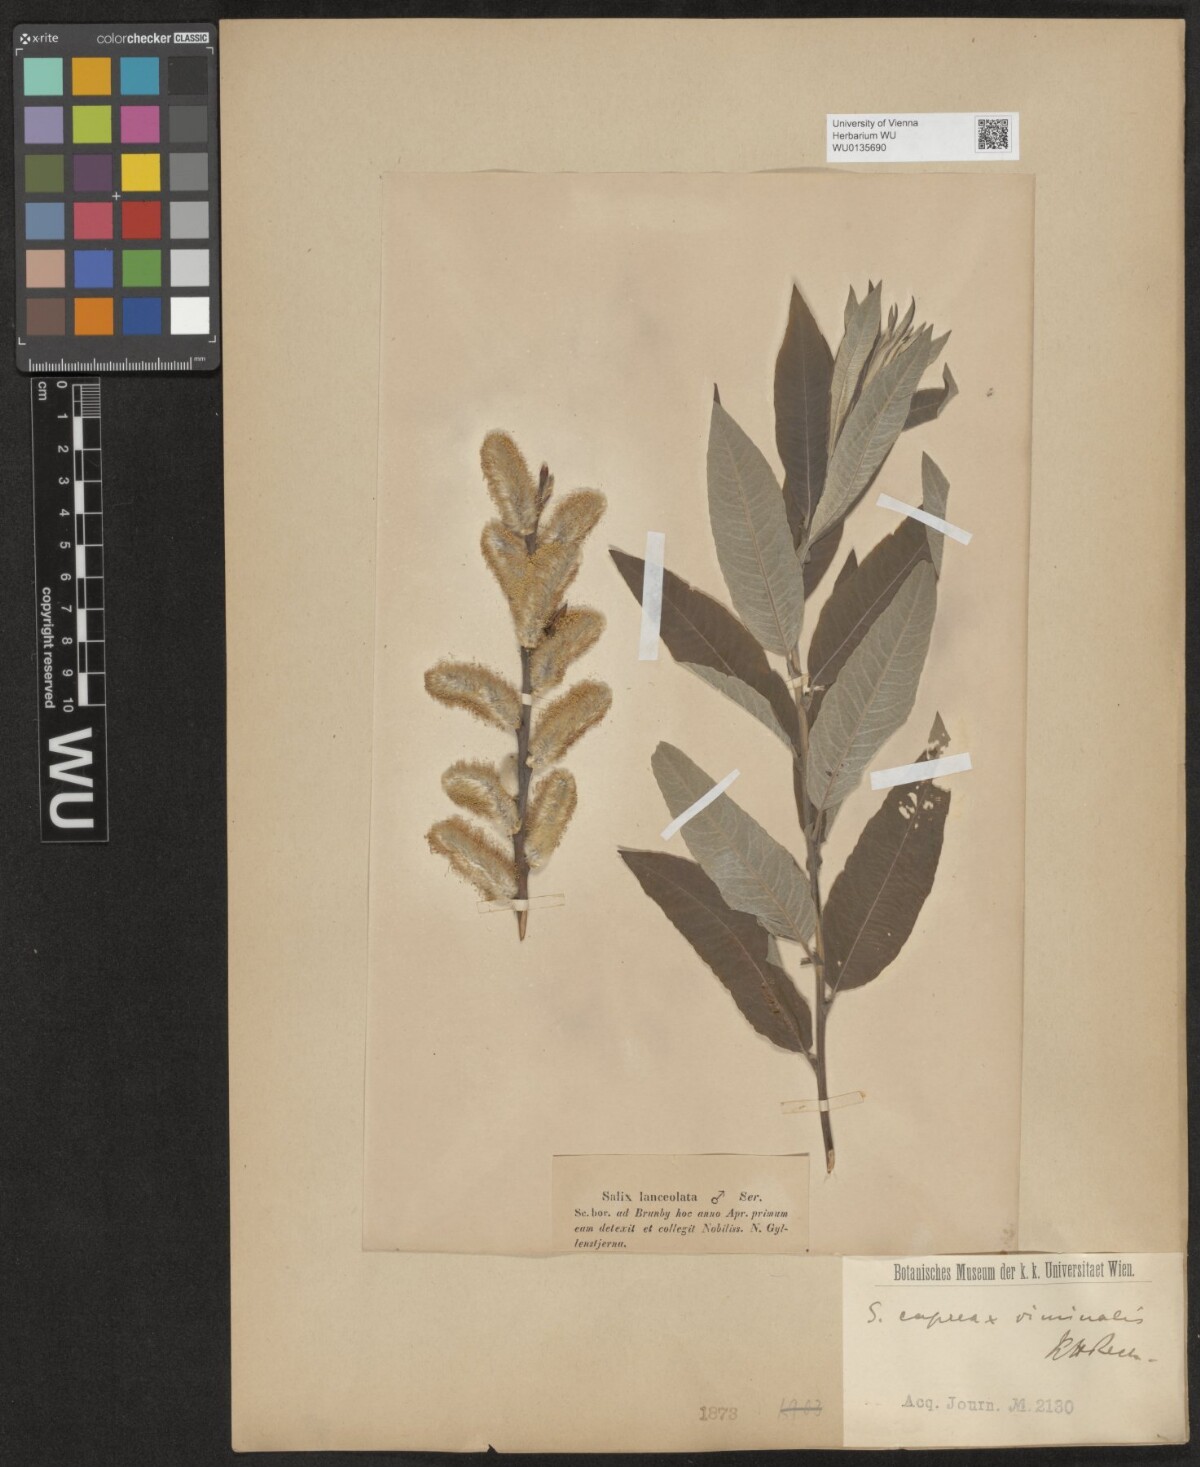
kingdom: Plantae
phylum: Tracheophyta
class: Magnoliopsida
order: Malpighiales
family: Salicaceae
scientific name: Salicaceae
